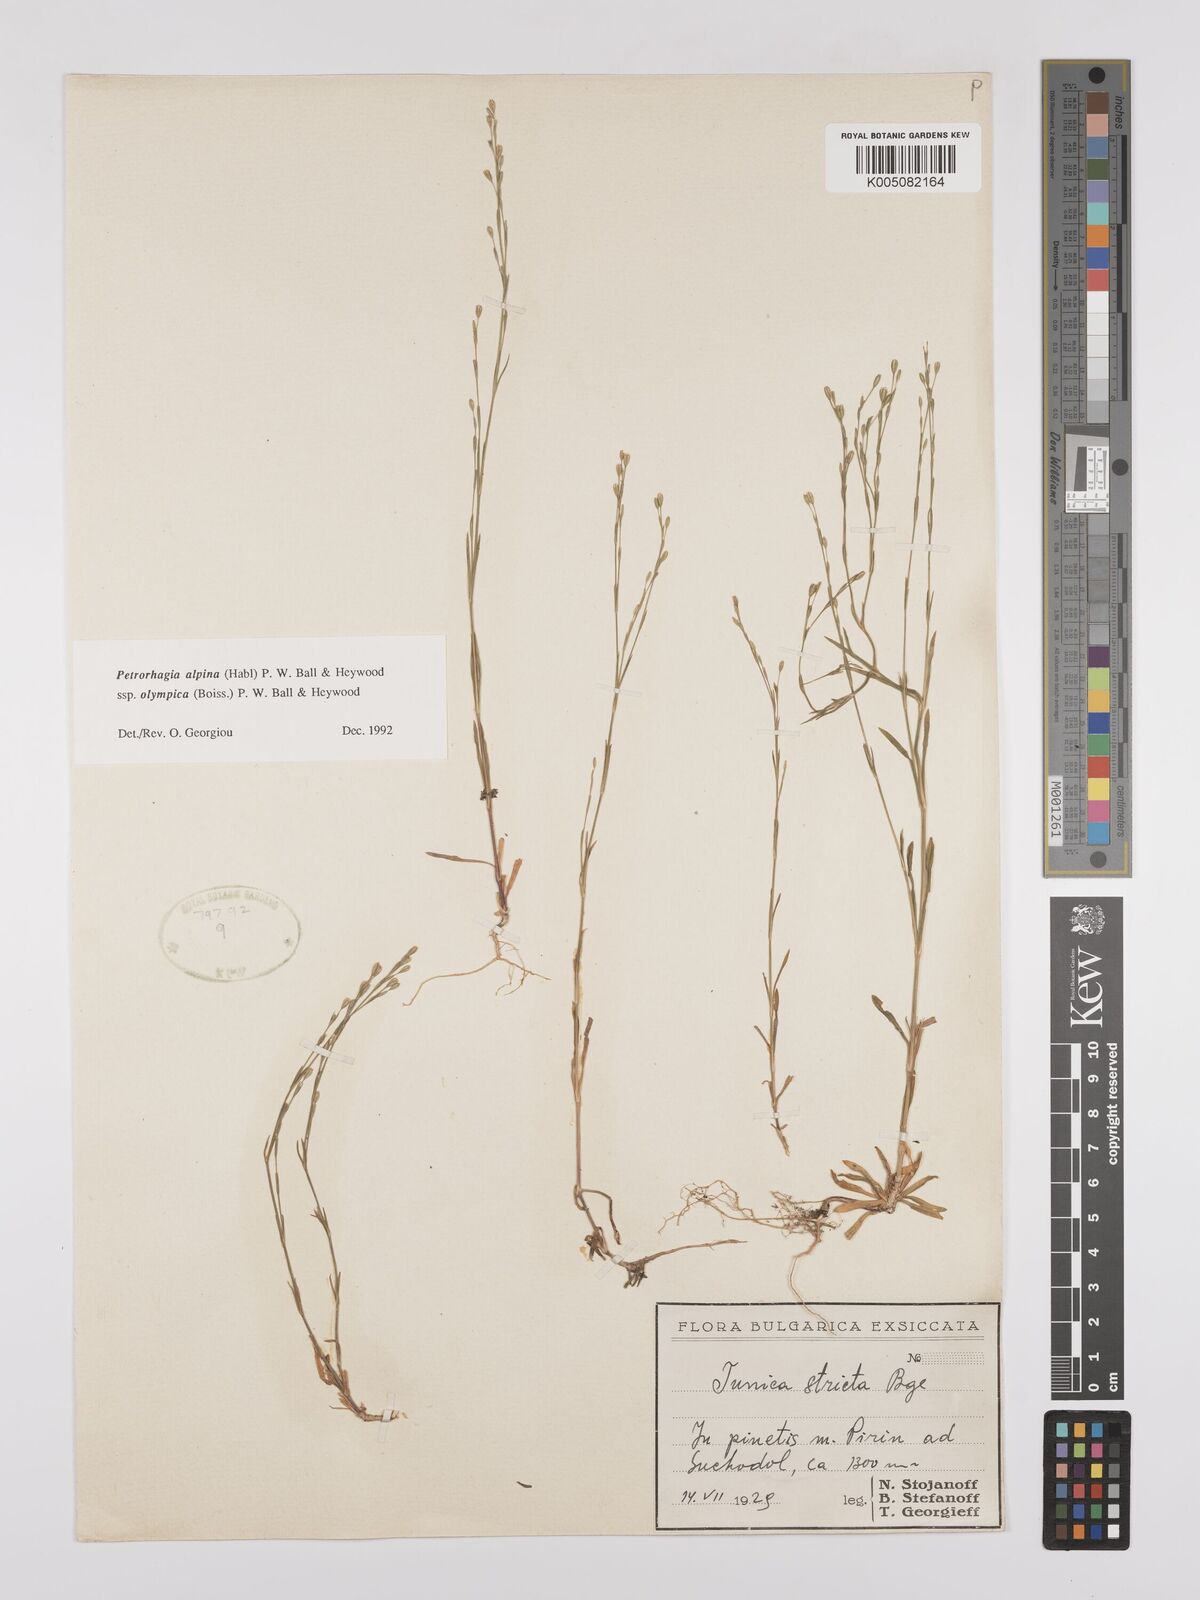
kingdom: Plantae
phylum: Tracheophyta
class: Magnoliopsida
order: Caryophyllales
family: Caryophyllaceae
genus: Petrorhagia
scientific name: Petrorhagia alpina
